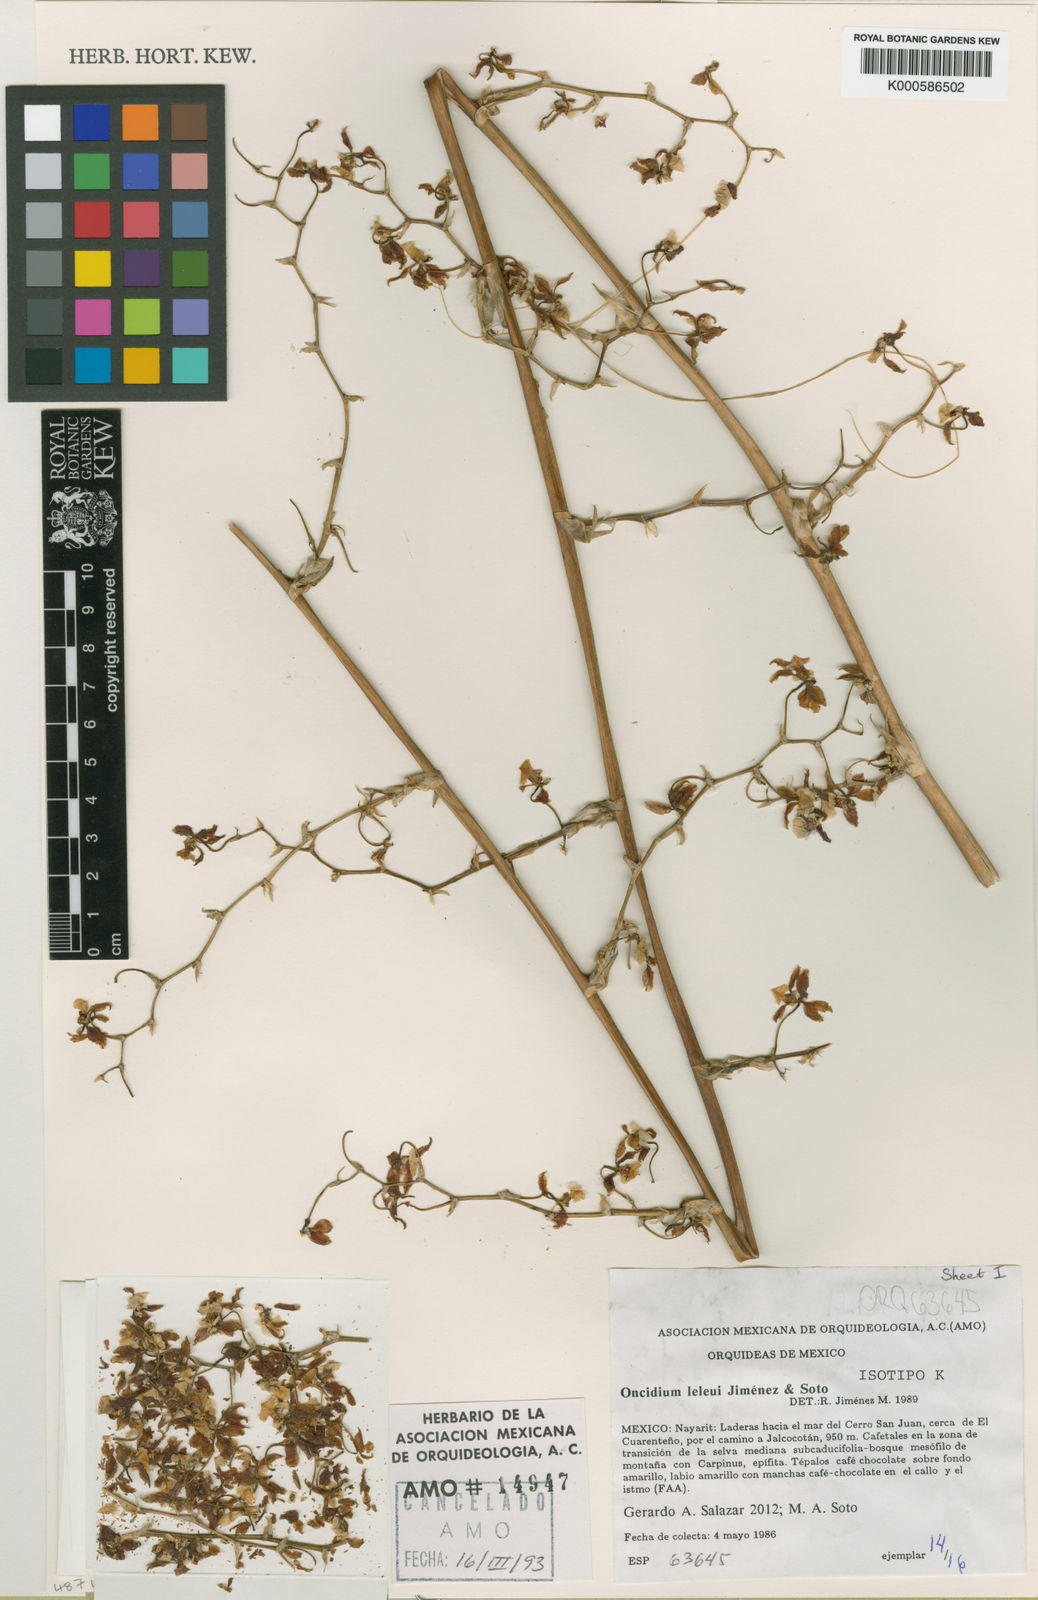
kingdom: Plantae
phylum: Tracheophyta
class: Liliopsida
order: Asparagales
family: Orchidaceae
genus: Oncidium
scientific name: Oncidium
